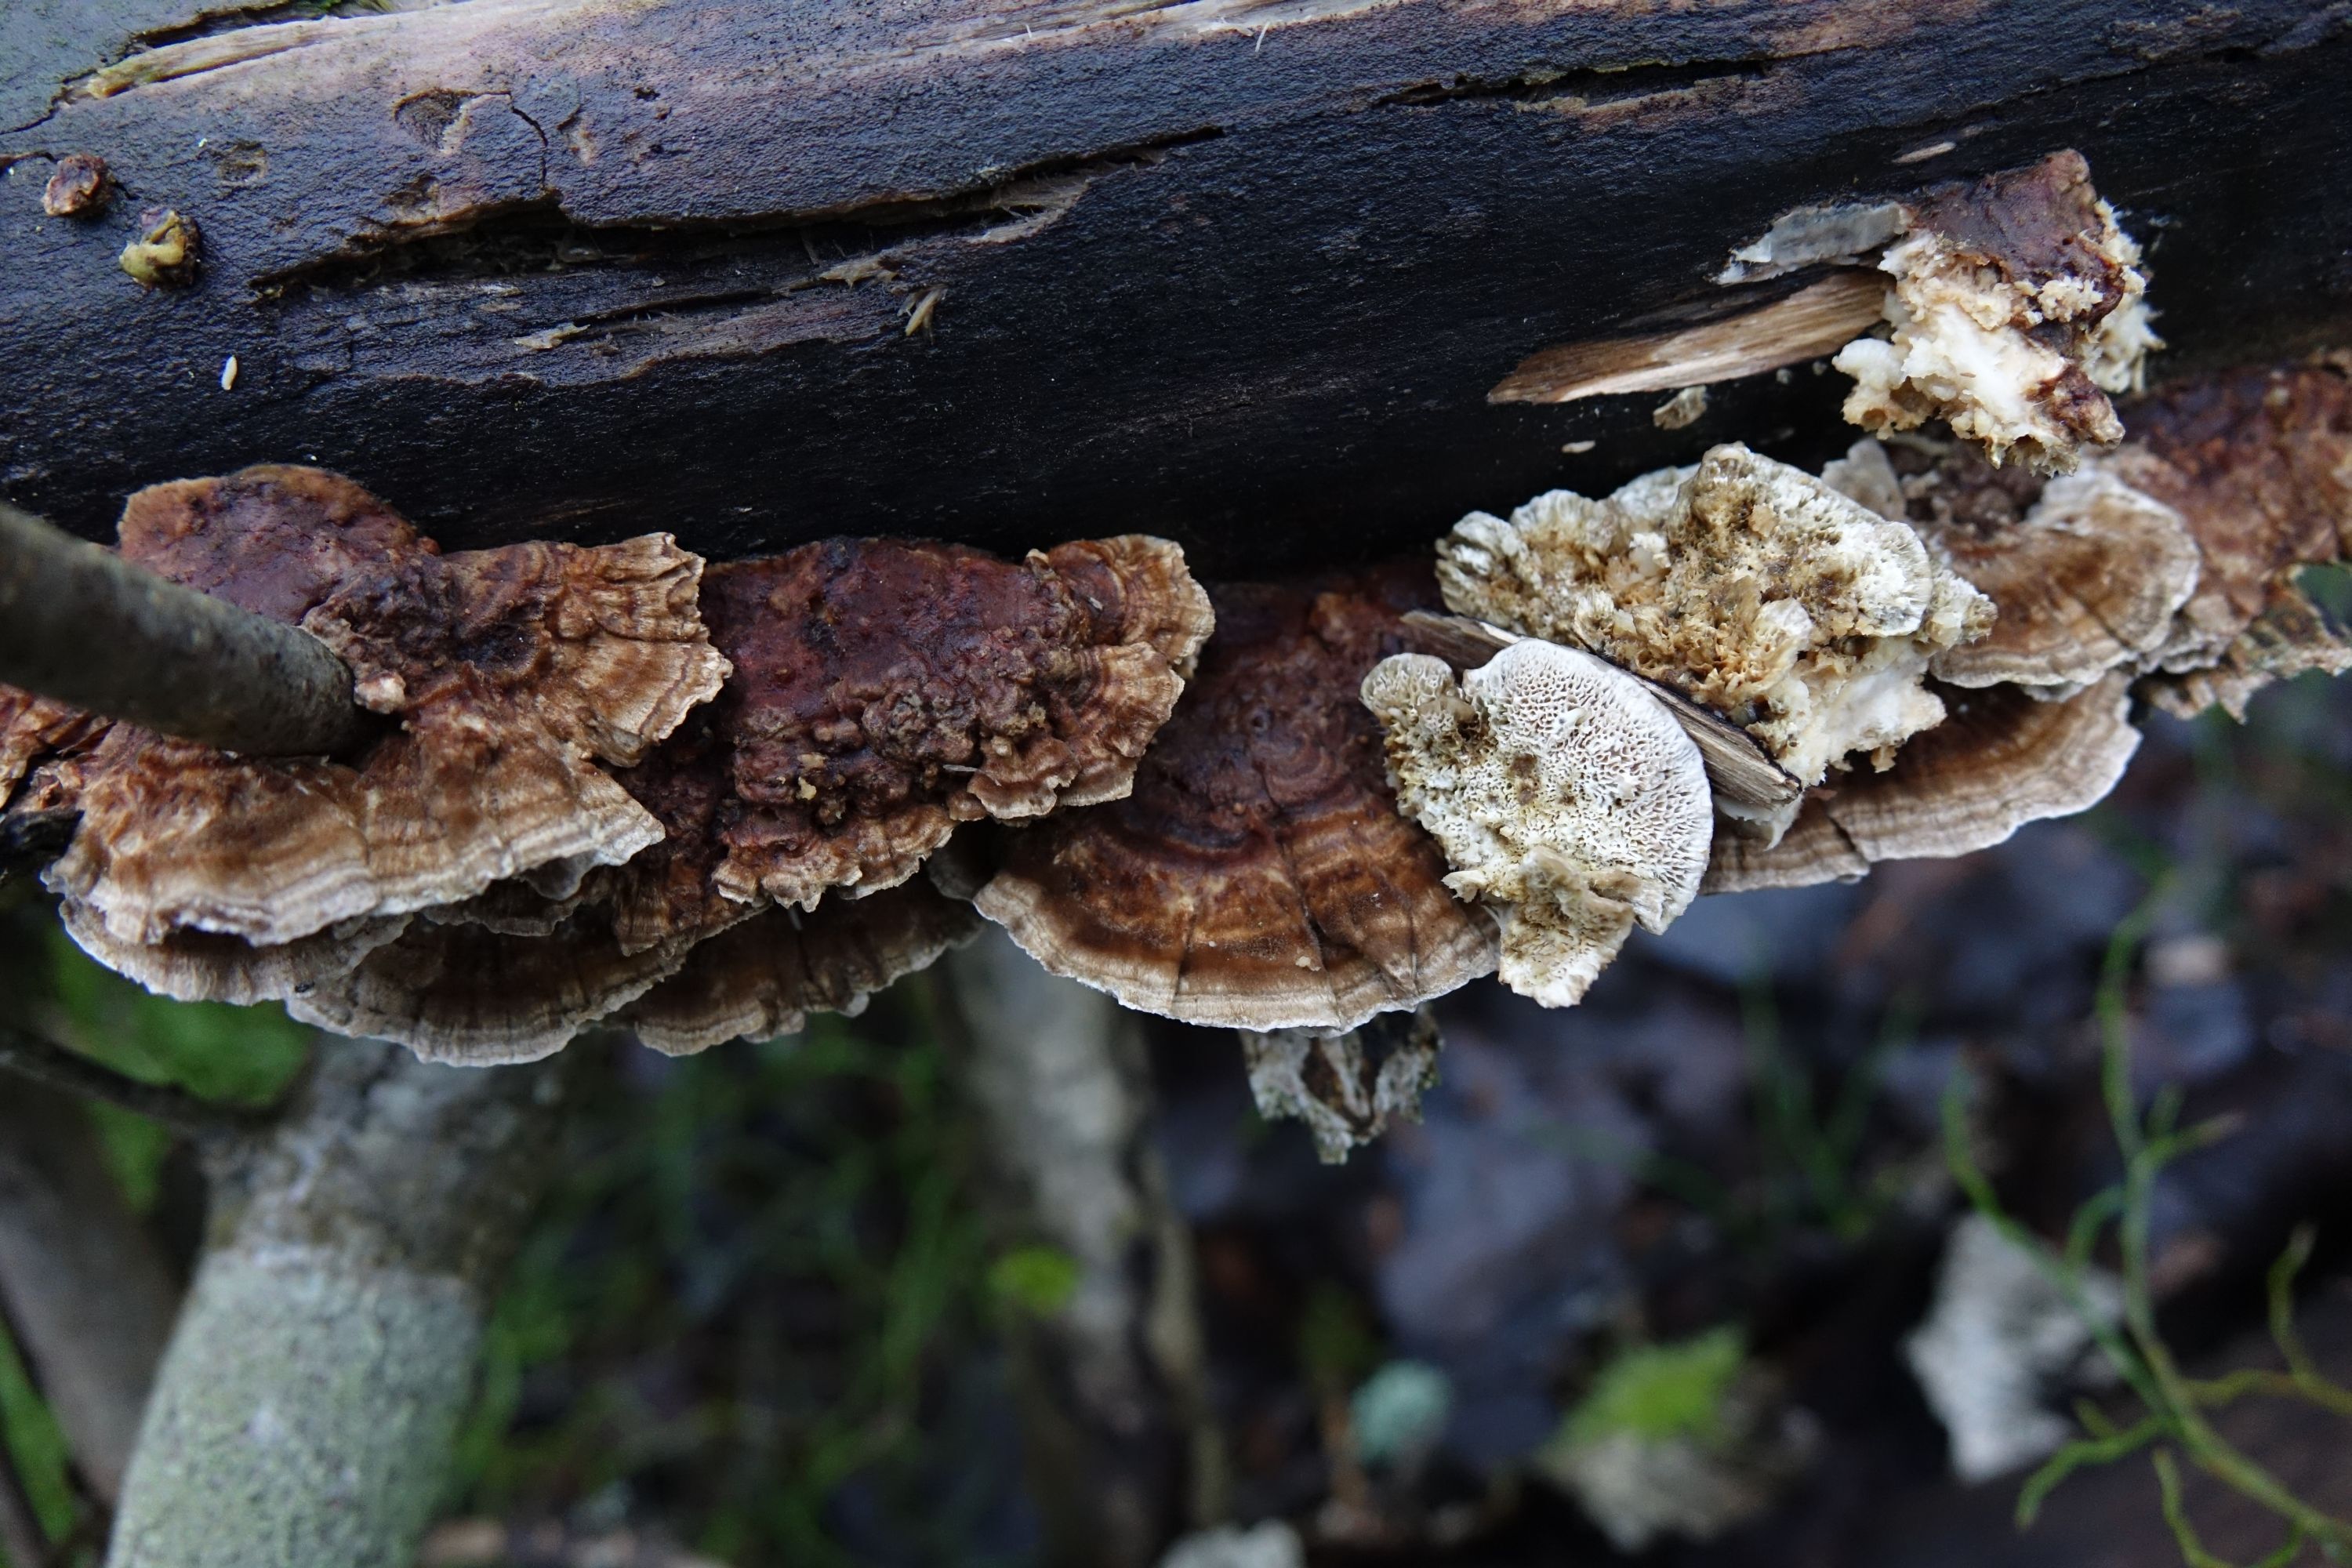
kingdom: Fungi
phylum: Basidiomycota
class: Agaricomycetes
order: Polyporales
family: Polyporaceae
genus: Trametes
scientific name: Trametes ochracea
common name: Ochre bracket
